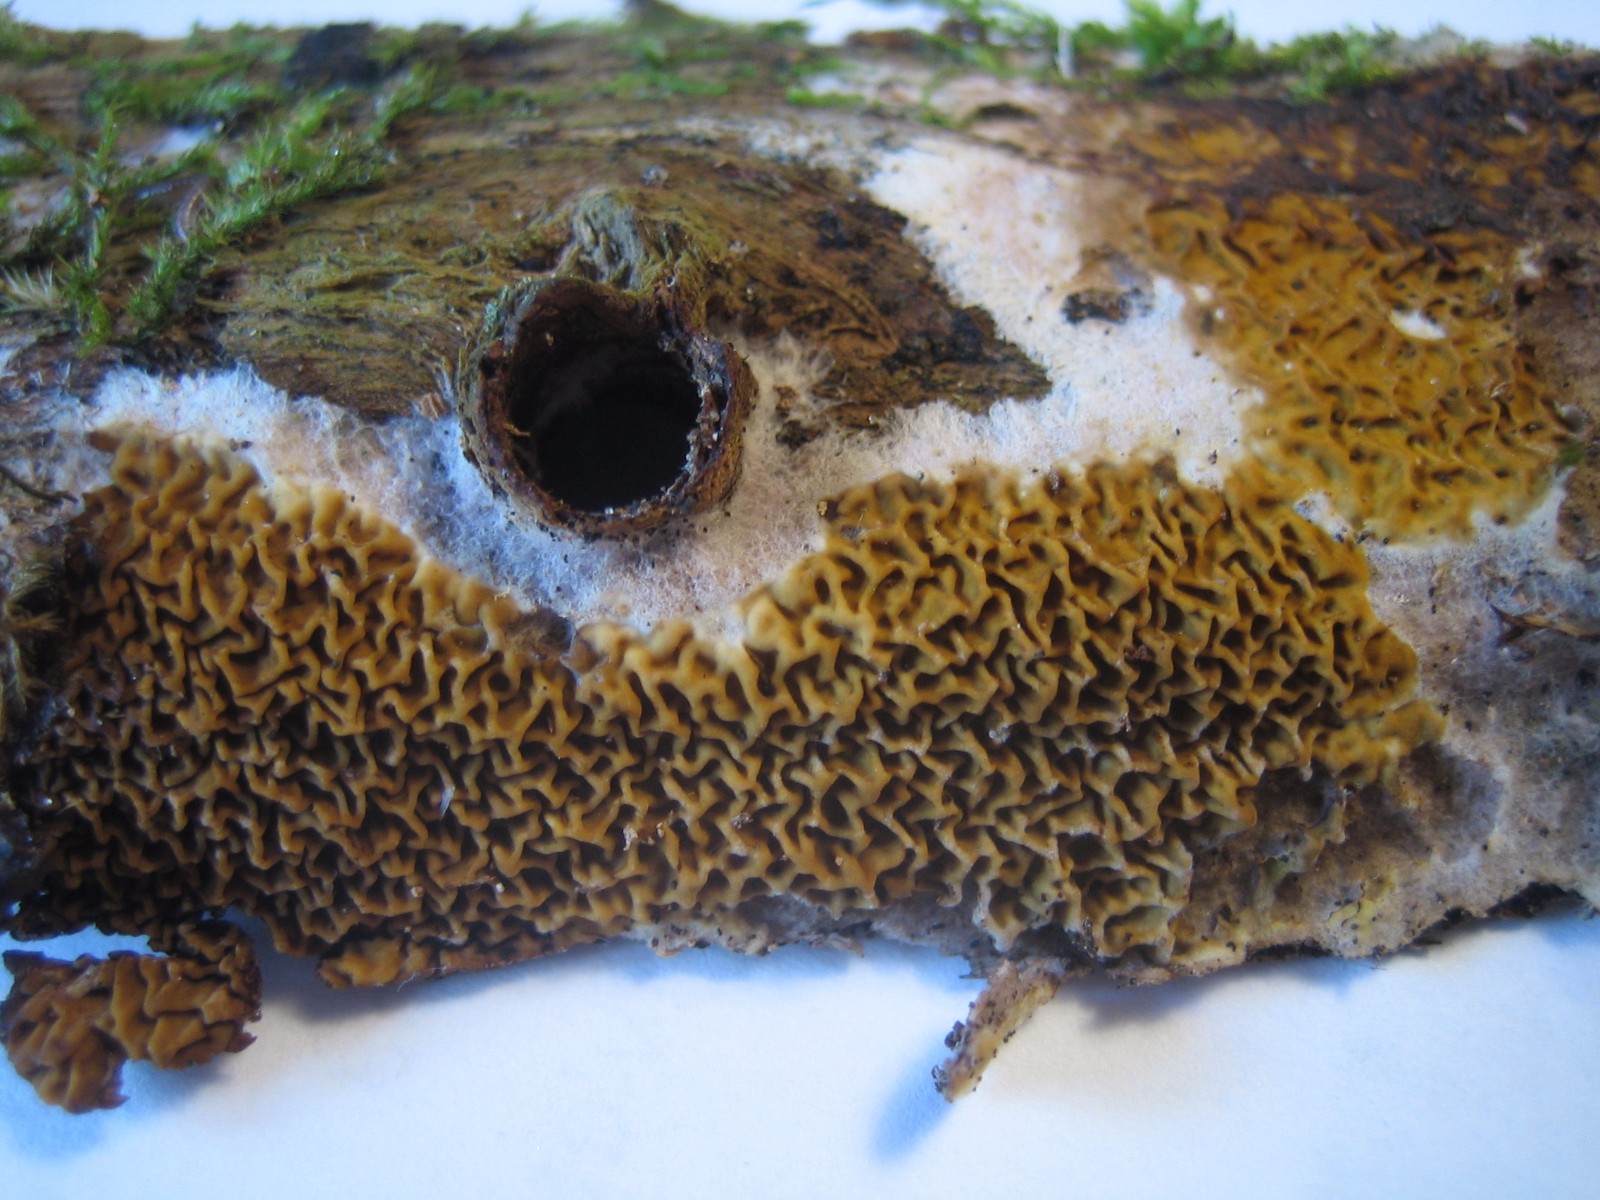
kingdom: Fungi
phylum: Basidiomycota
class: Agaricomycetes
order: Boletales
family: Serpulaceae
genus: Serpula
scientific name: Serpula himantioides
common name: tyndkødet hussvamp
